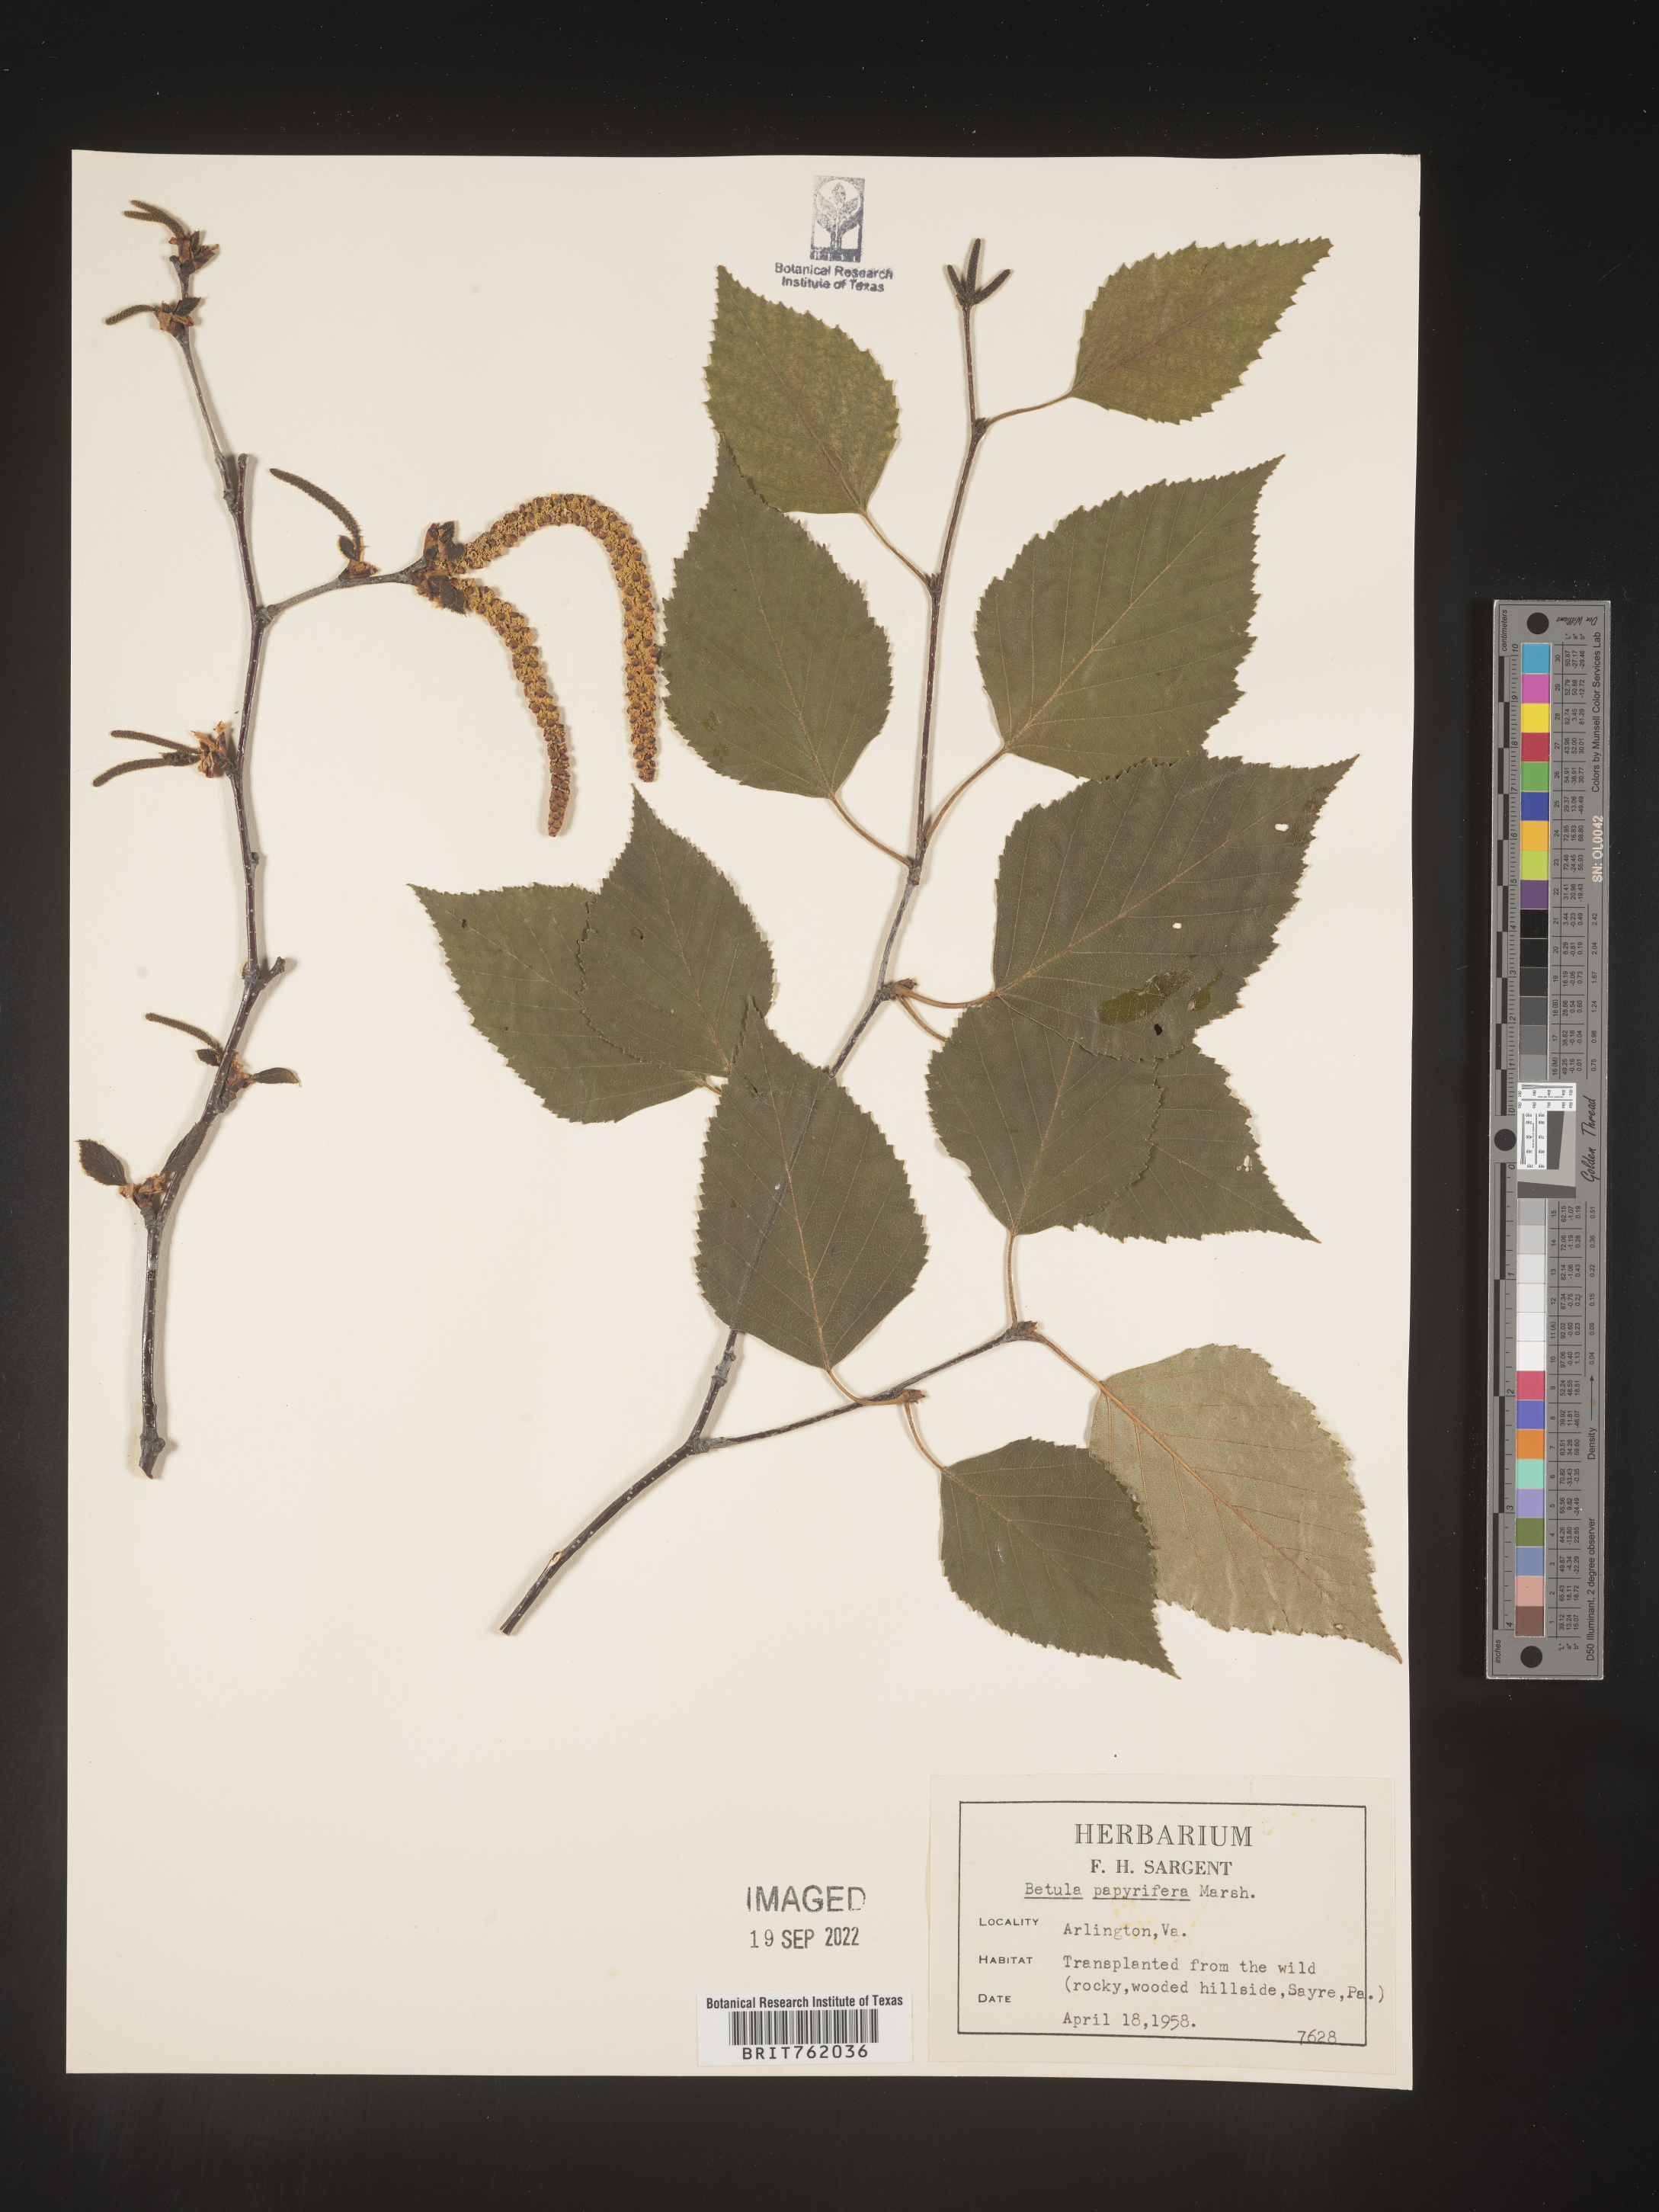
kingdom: Plantae
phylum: Tracheophyta
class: Magnoliopsida
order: Fagales
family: Betulaceae
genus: Betula
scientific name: Betula papyrifera
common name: Paper birch
